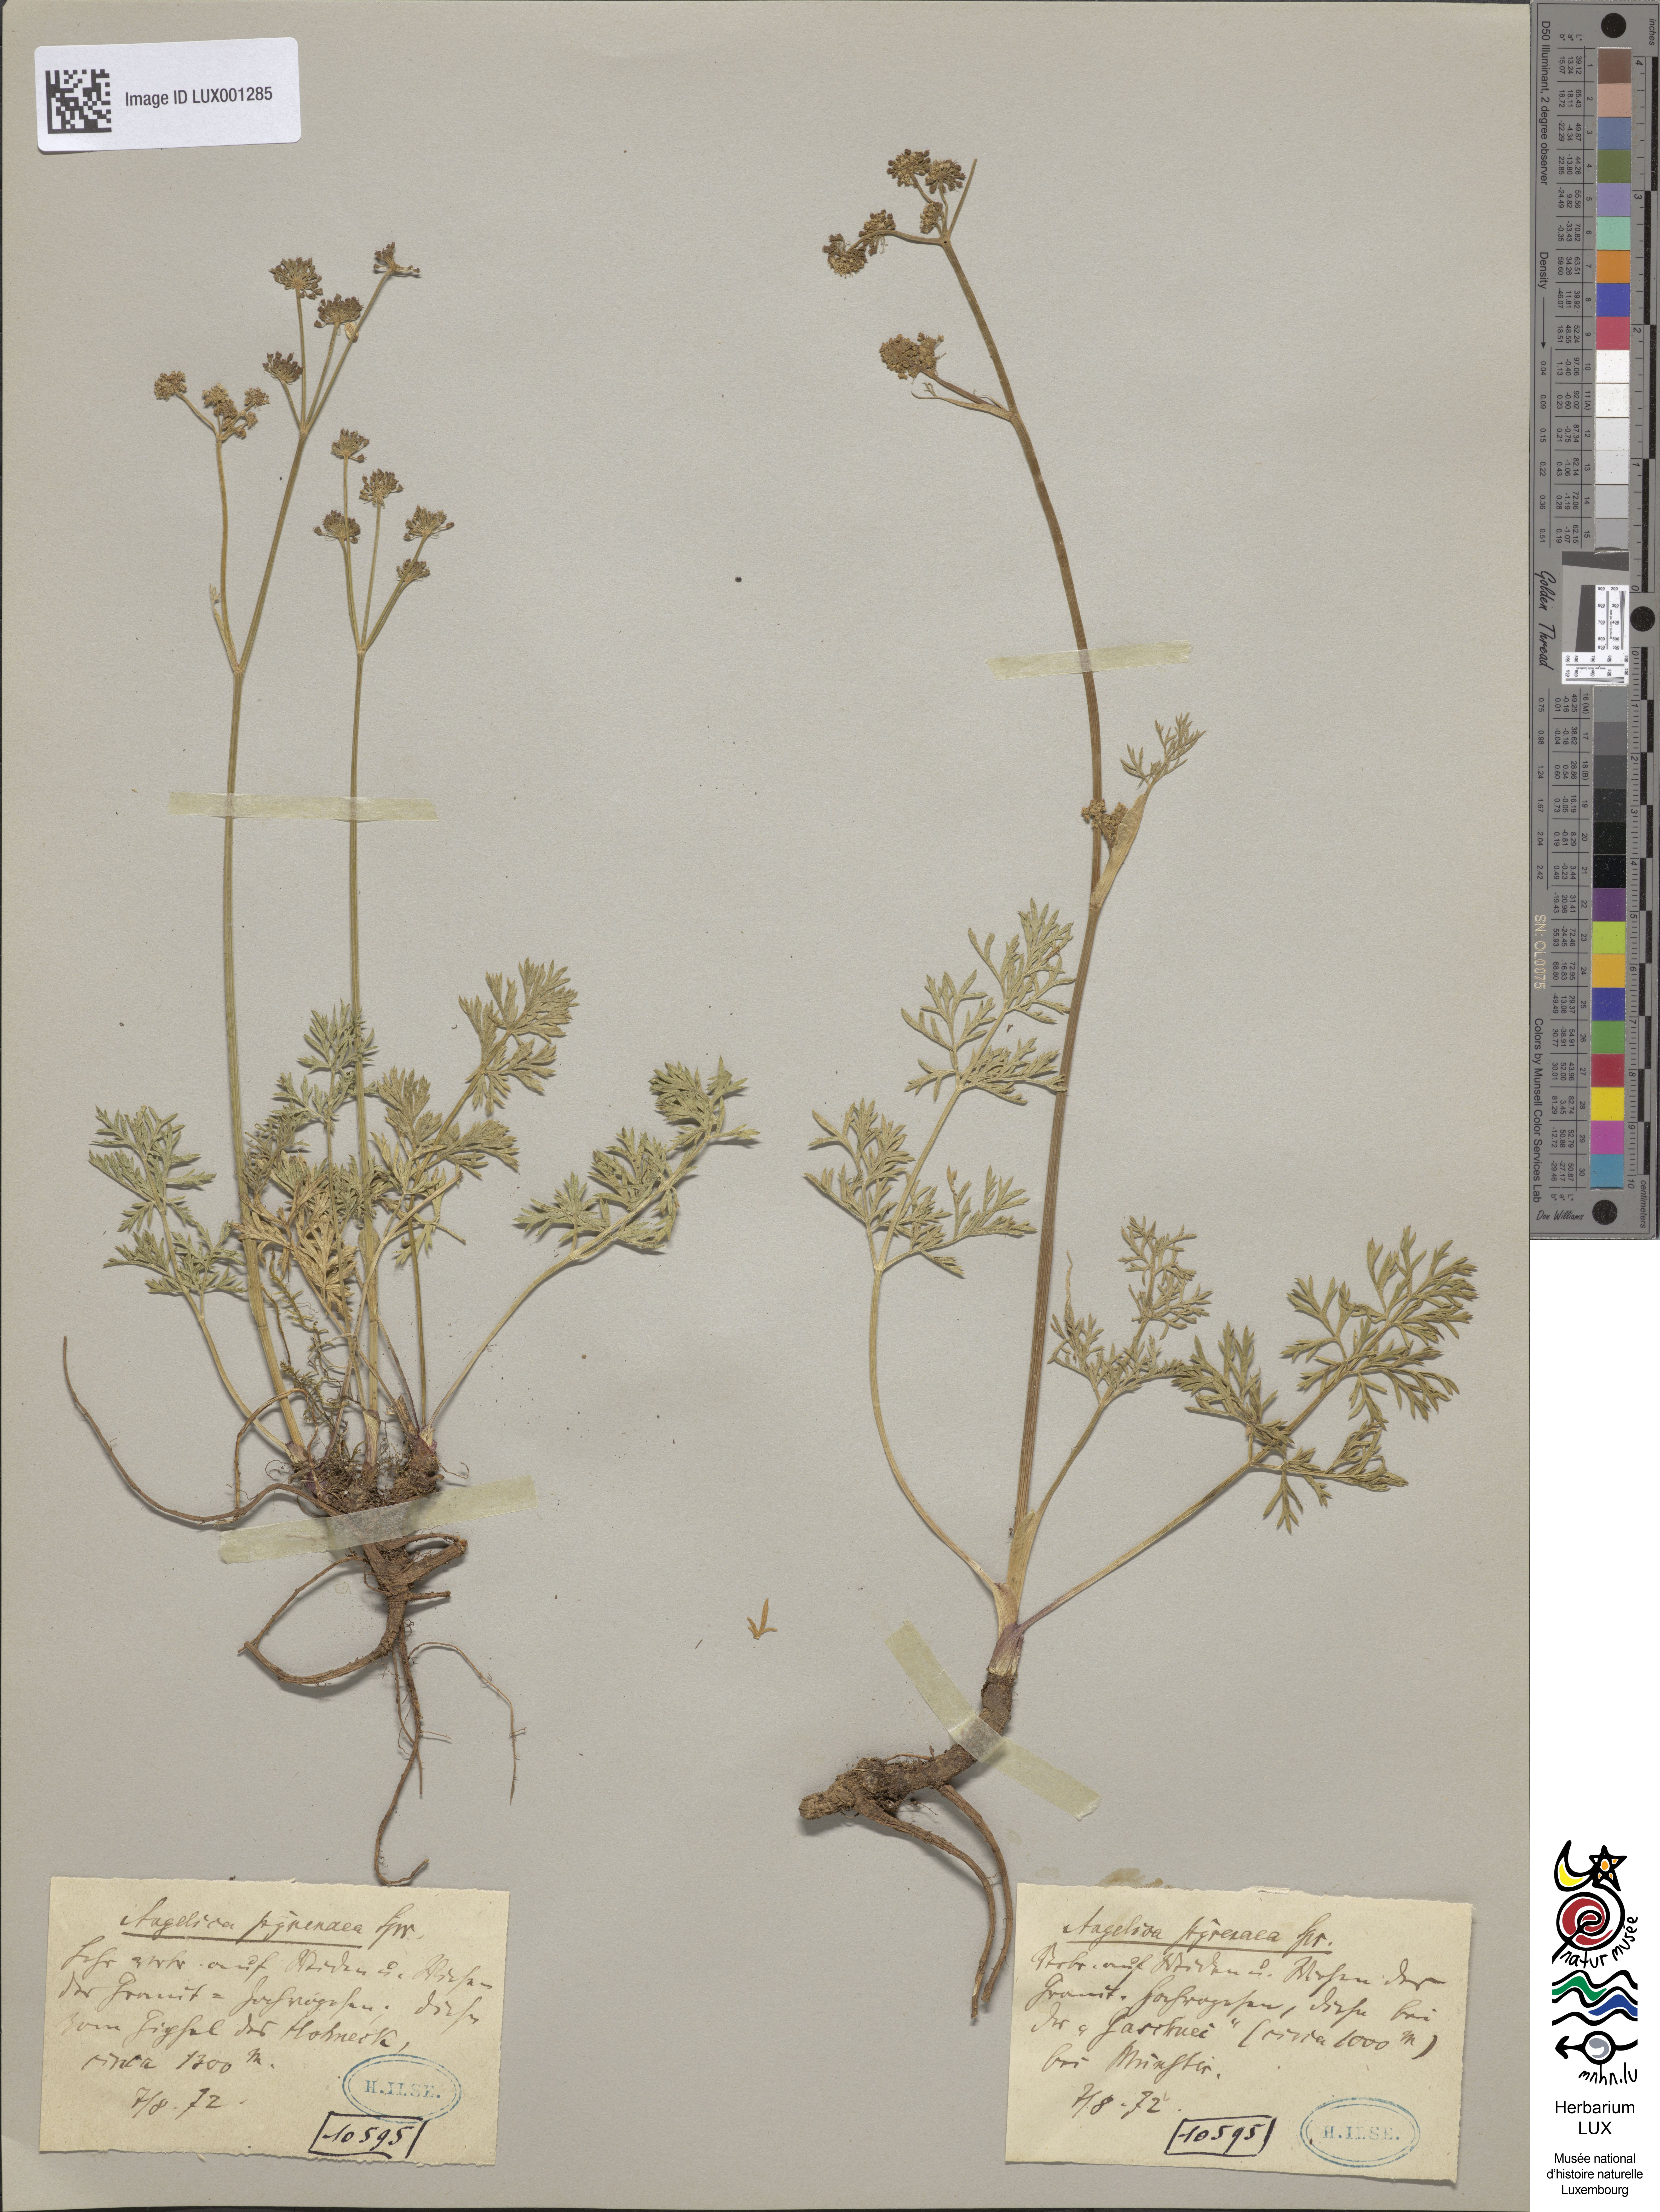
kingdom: Plantae
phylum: Tracheophyta
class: Magnoliopsida
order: Apiales
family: Apiaceae
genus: Epikeros
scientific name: Epikeros pyrenaeus
